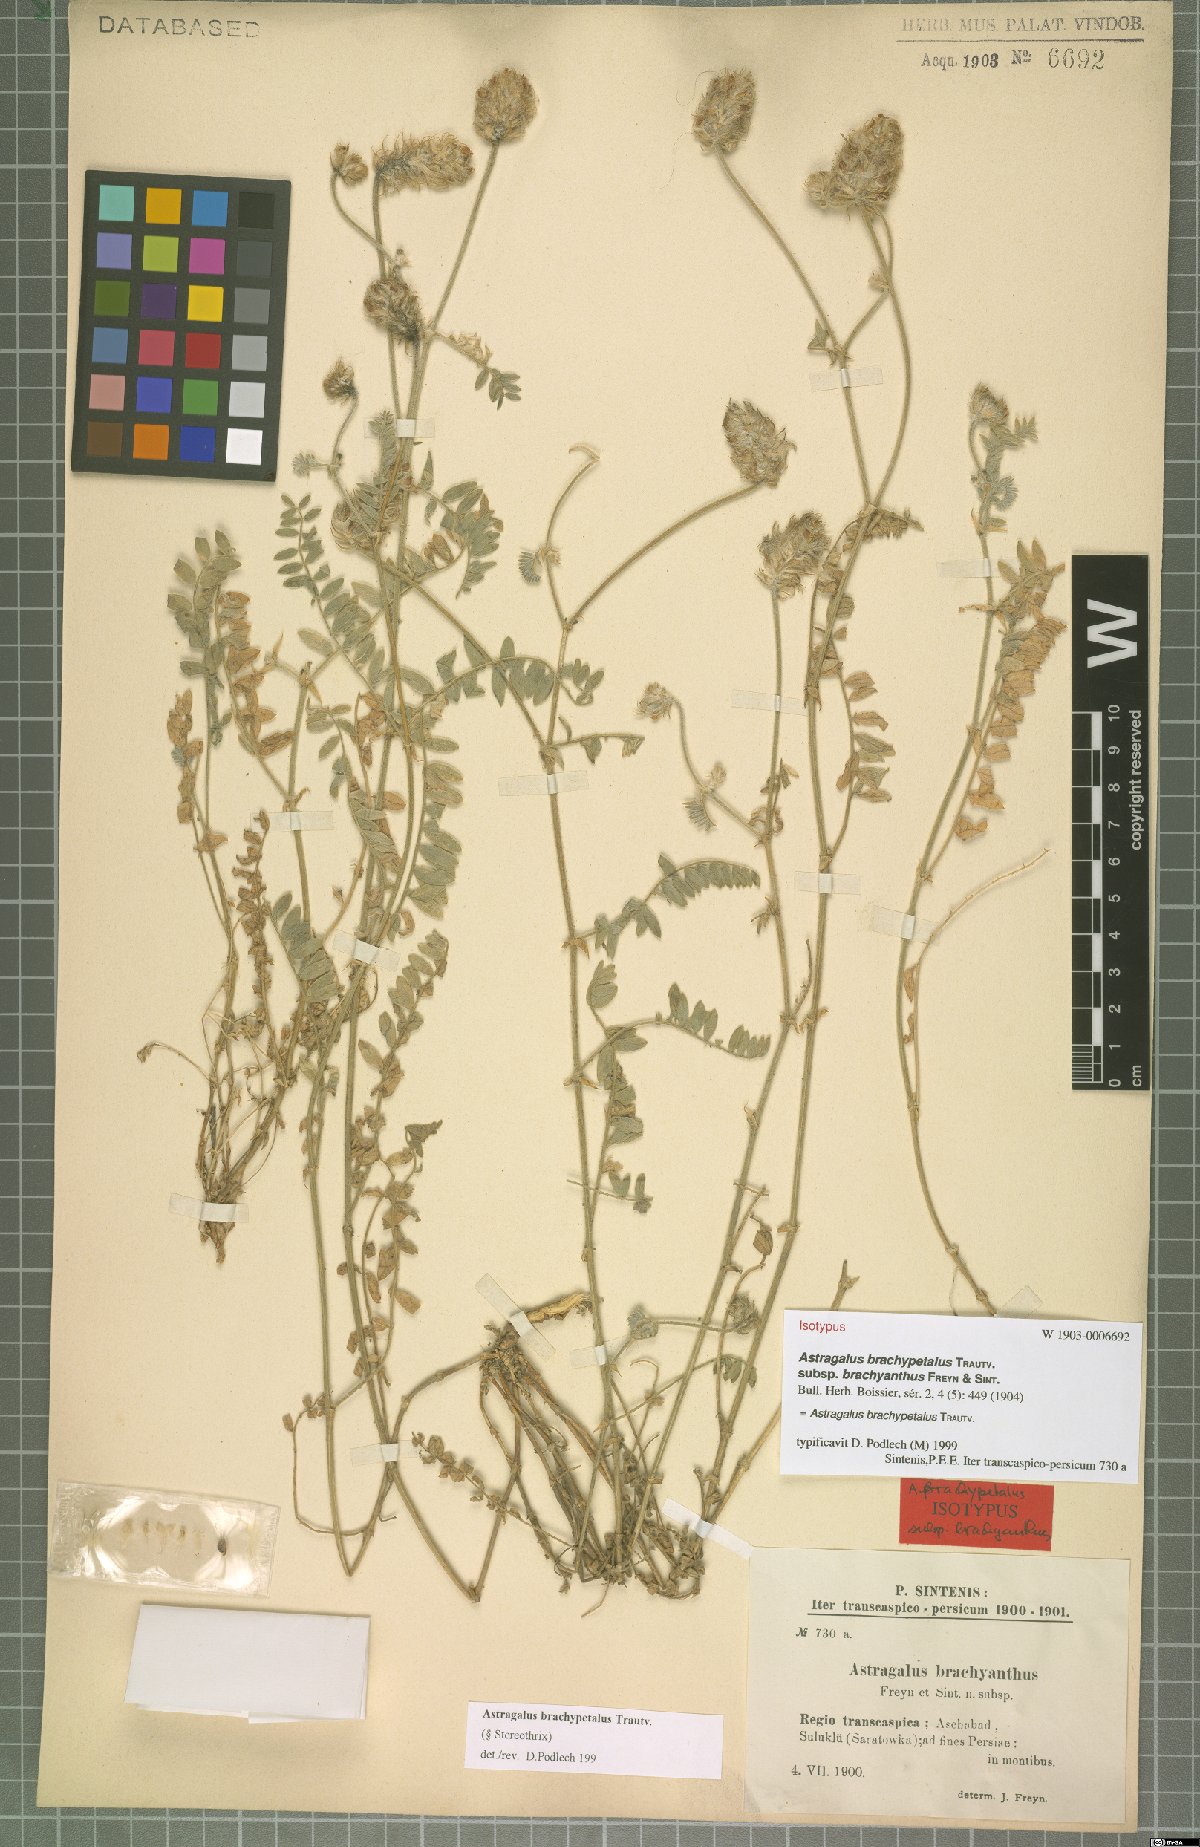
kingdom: Plantae
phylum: Tracheophyta
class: Magnoliopsida
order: Fabales
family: Fabaceae
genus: Astragalus
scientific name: Astragalus brachypetalus
